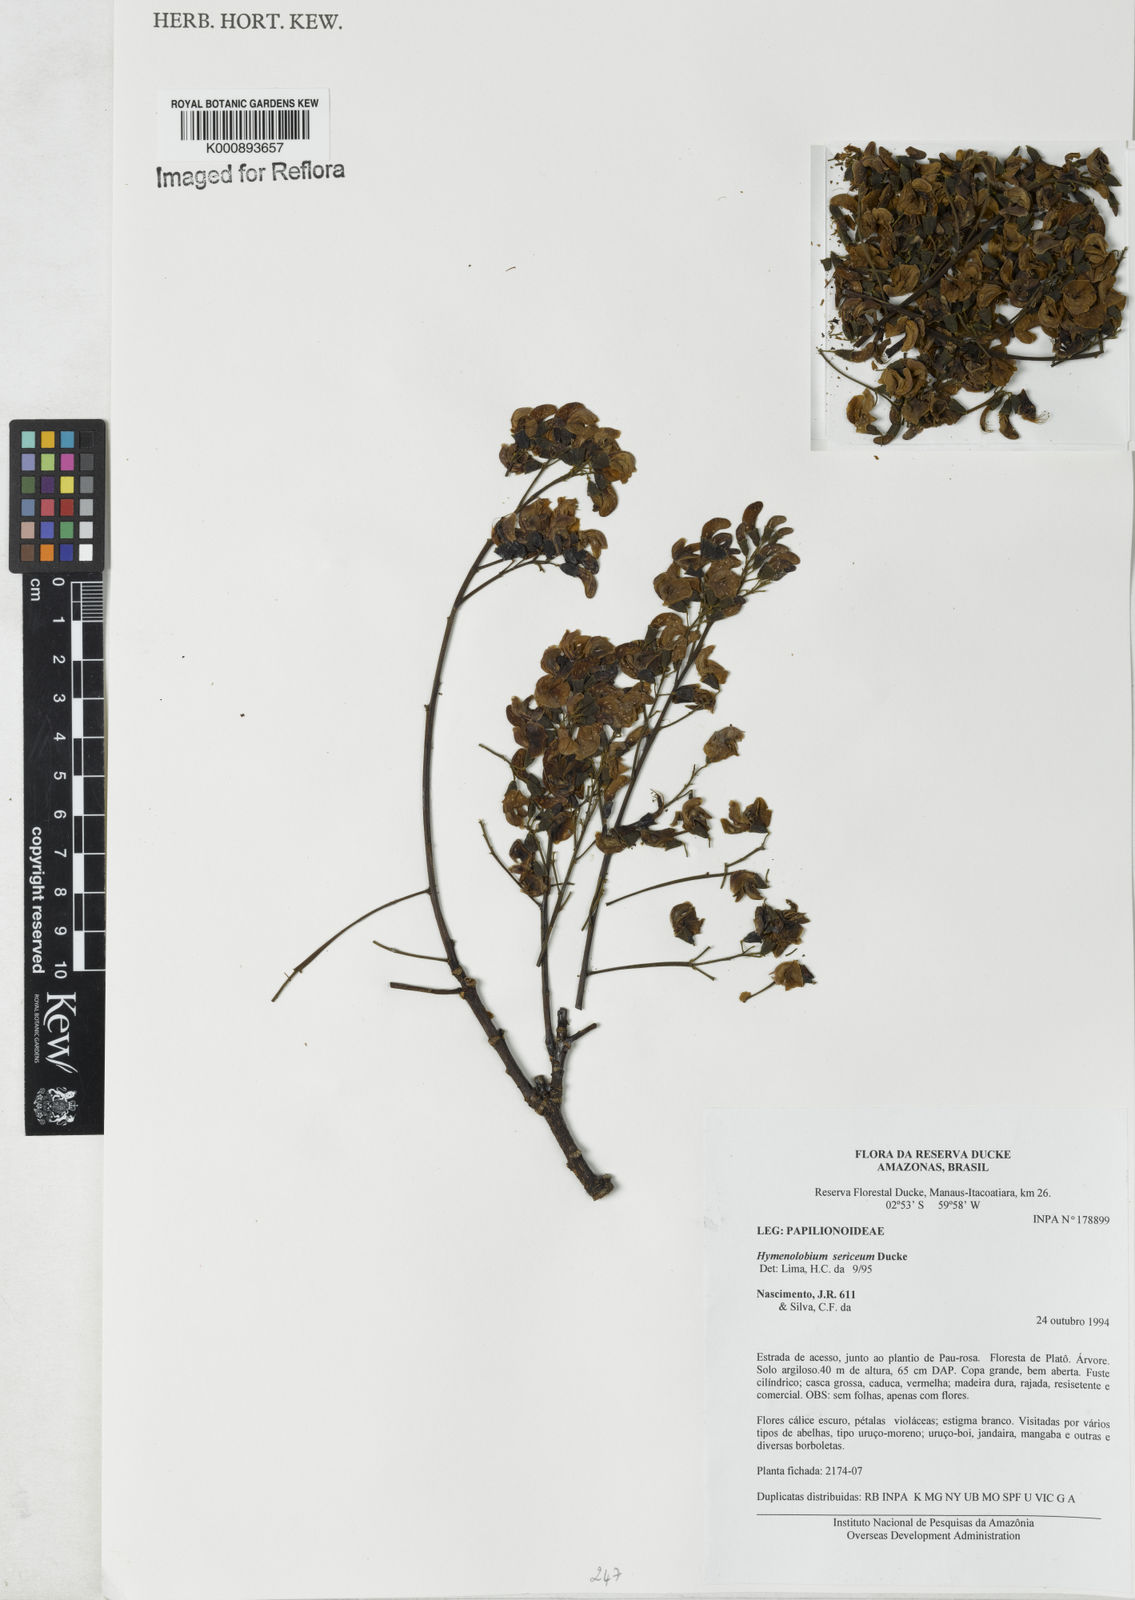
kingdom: Plantae
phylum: Tracheophyta
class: Magnoliopsida
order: Fabales
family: Fabaceae
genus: Hymenolobium
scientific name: Hymenolobium sericeum
